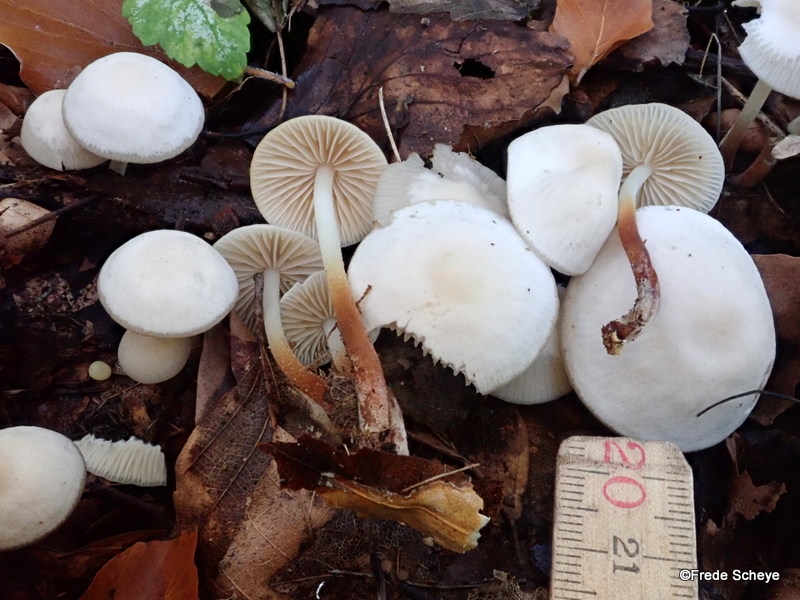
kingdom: Fungi
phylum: Basidiomycota
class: Agaricomycetes
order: Agaricales
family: Marasmiaceae
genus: Marasmius
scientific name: Marasmius wynneae
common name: hvælvet bruskhat
